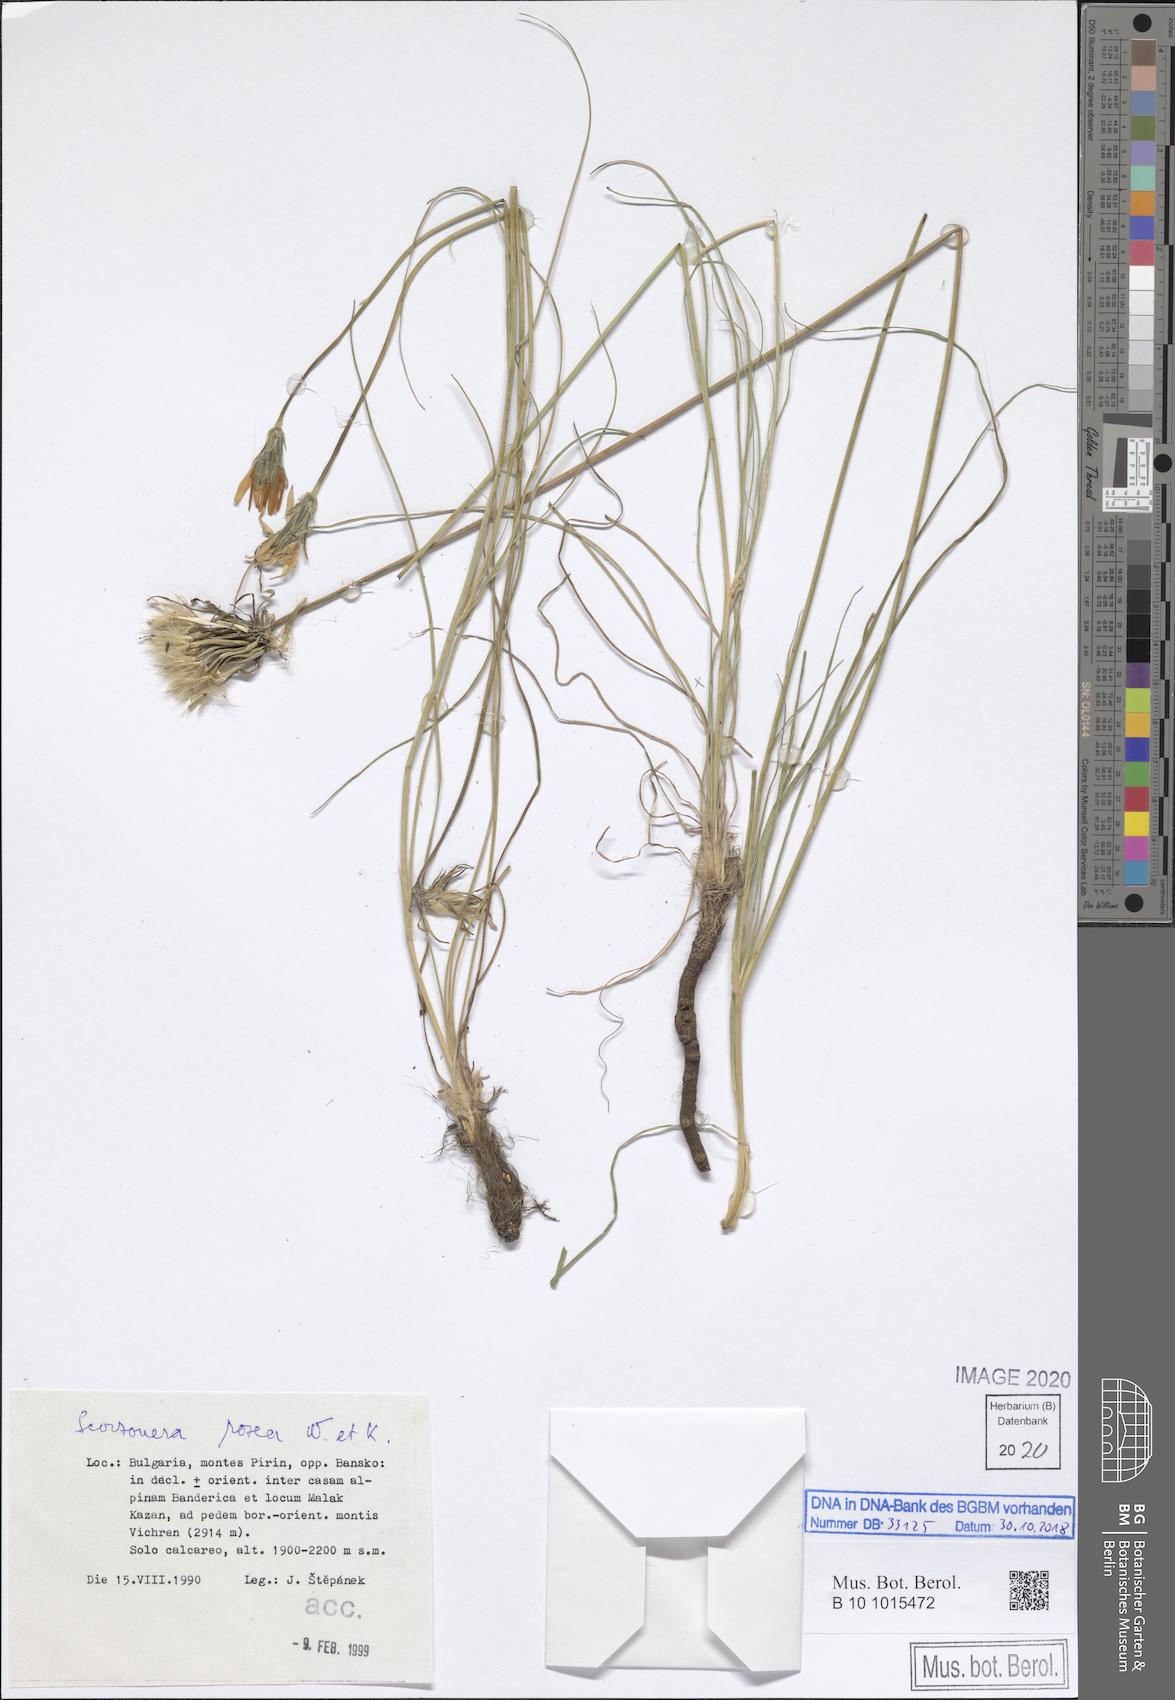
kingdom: Plantae
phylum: Tracheophyta
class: Magnoliopsida
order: Asterales
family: Asteraceae
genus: Scorzonera
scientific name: Scorzonera rosea
